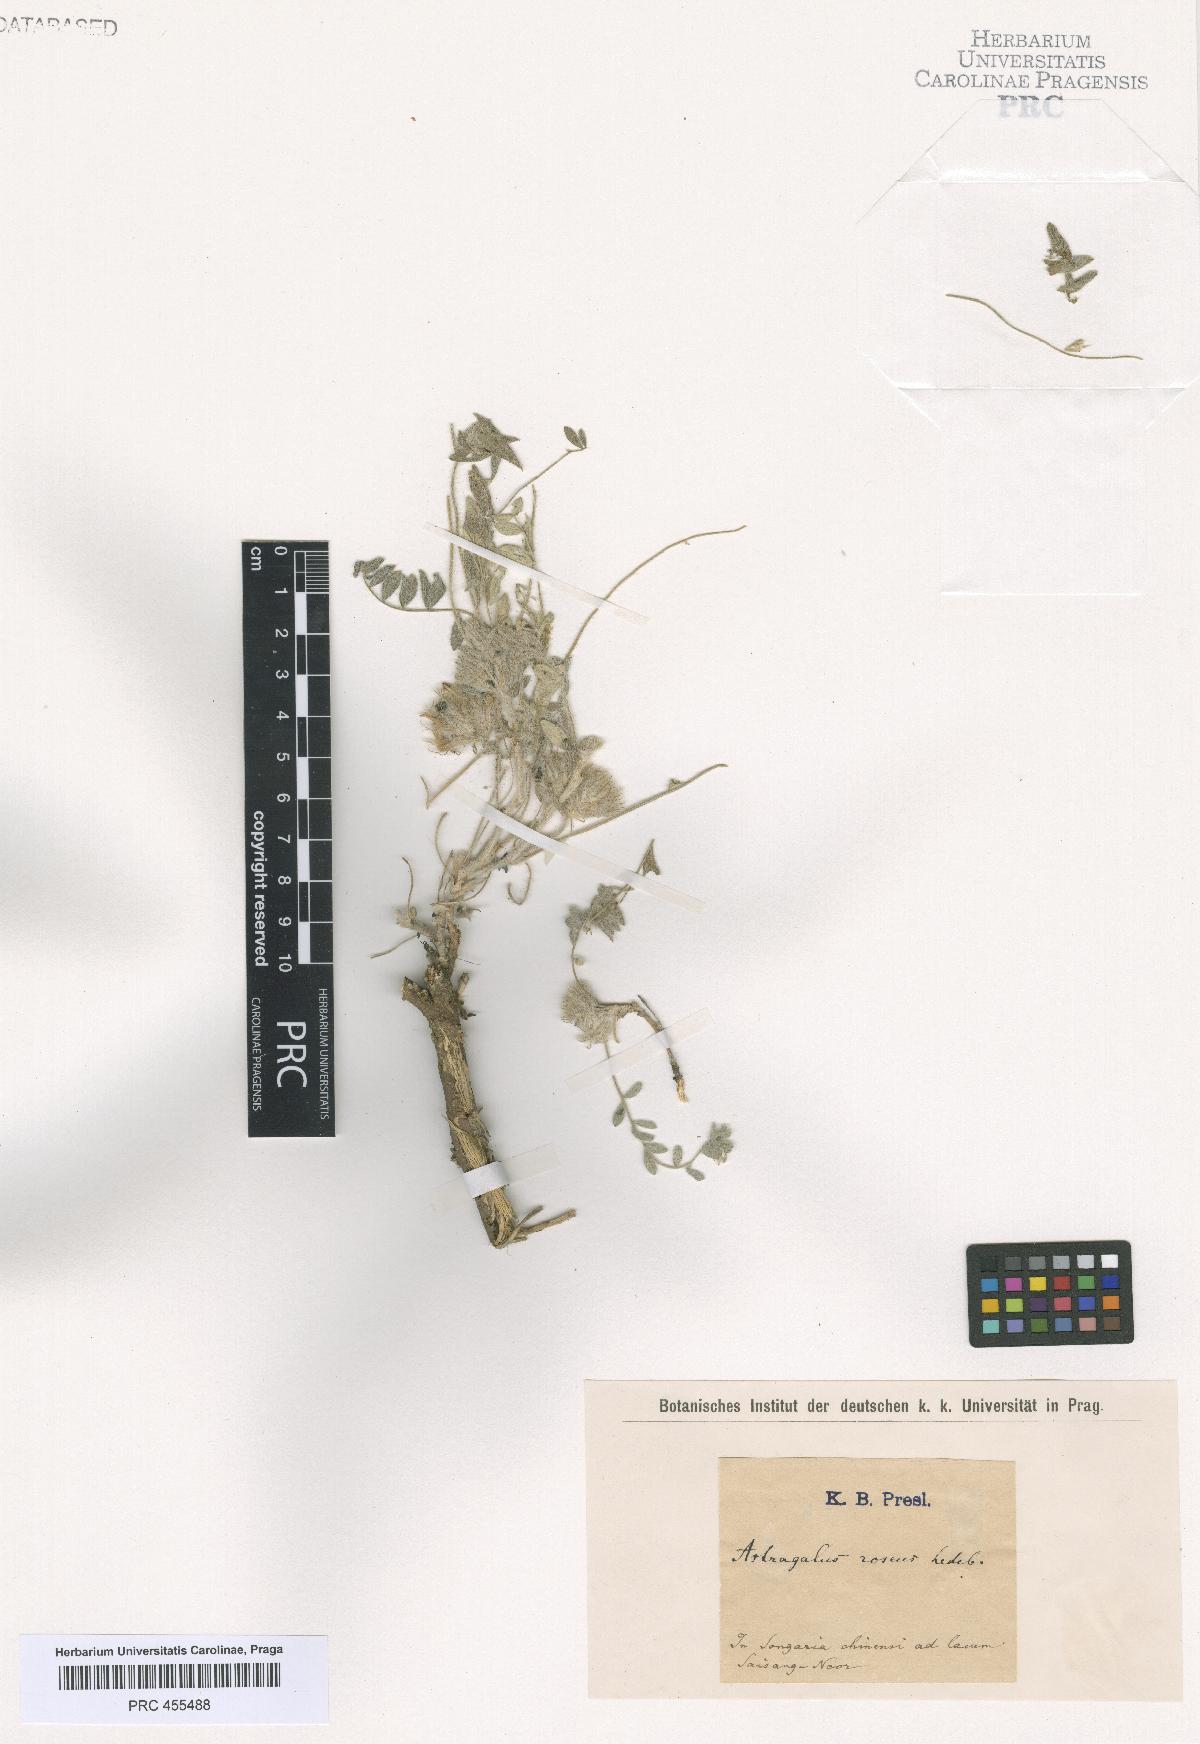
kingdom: Plantae
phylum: Tracheophyta
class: Magnoliopsida
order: Fabales
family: Fabaceae
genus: Astragalus
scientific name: Astragalus
